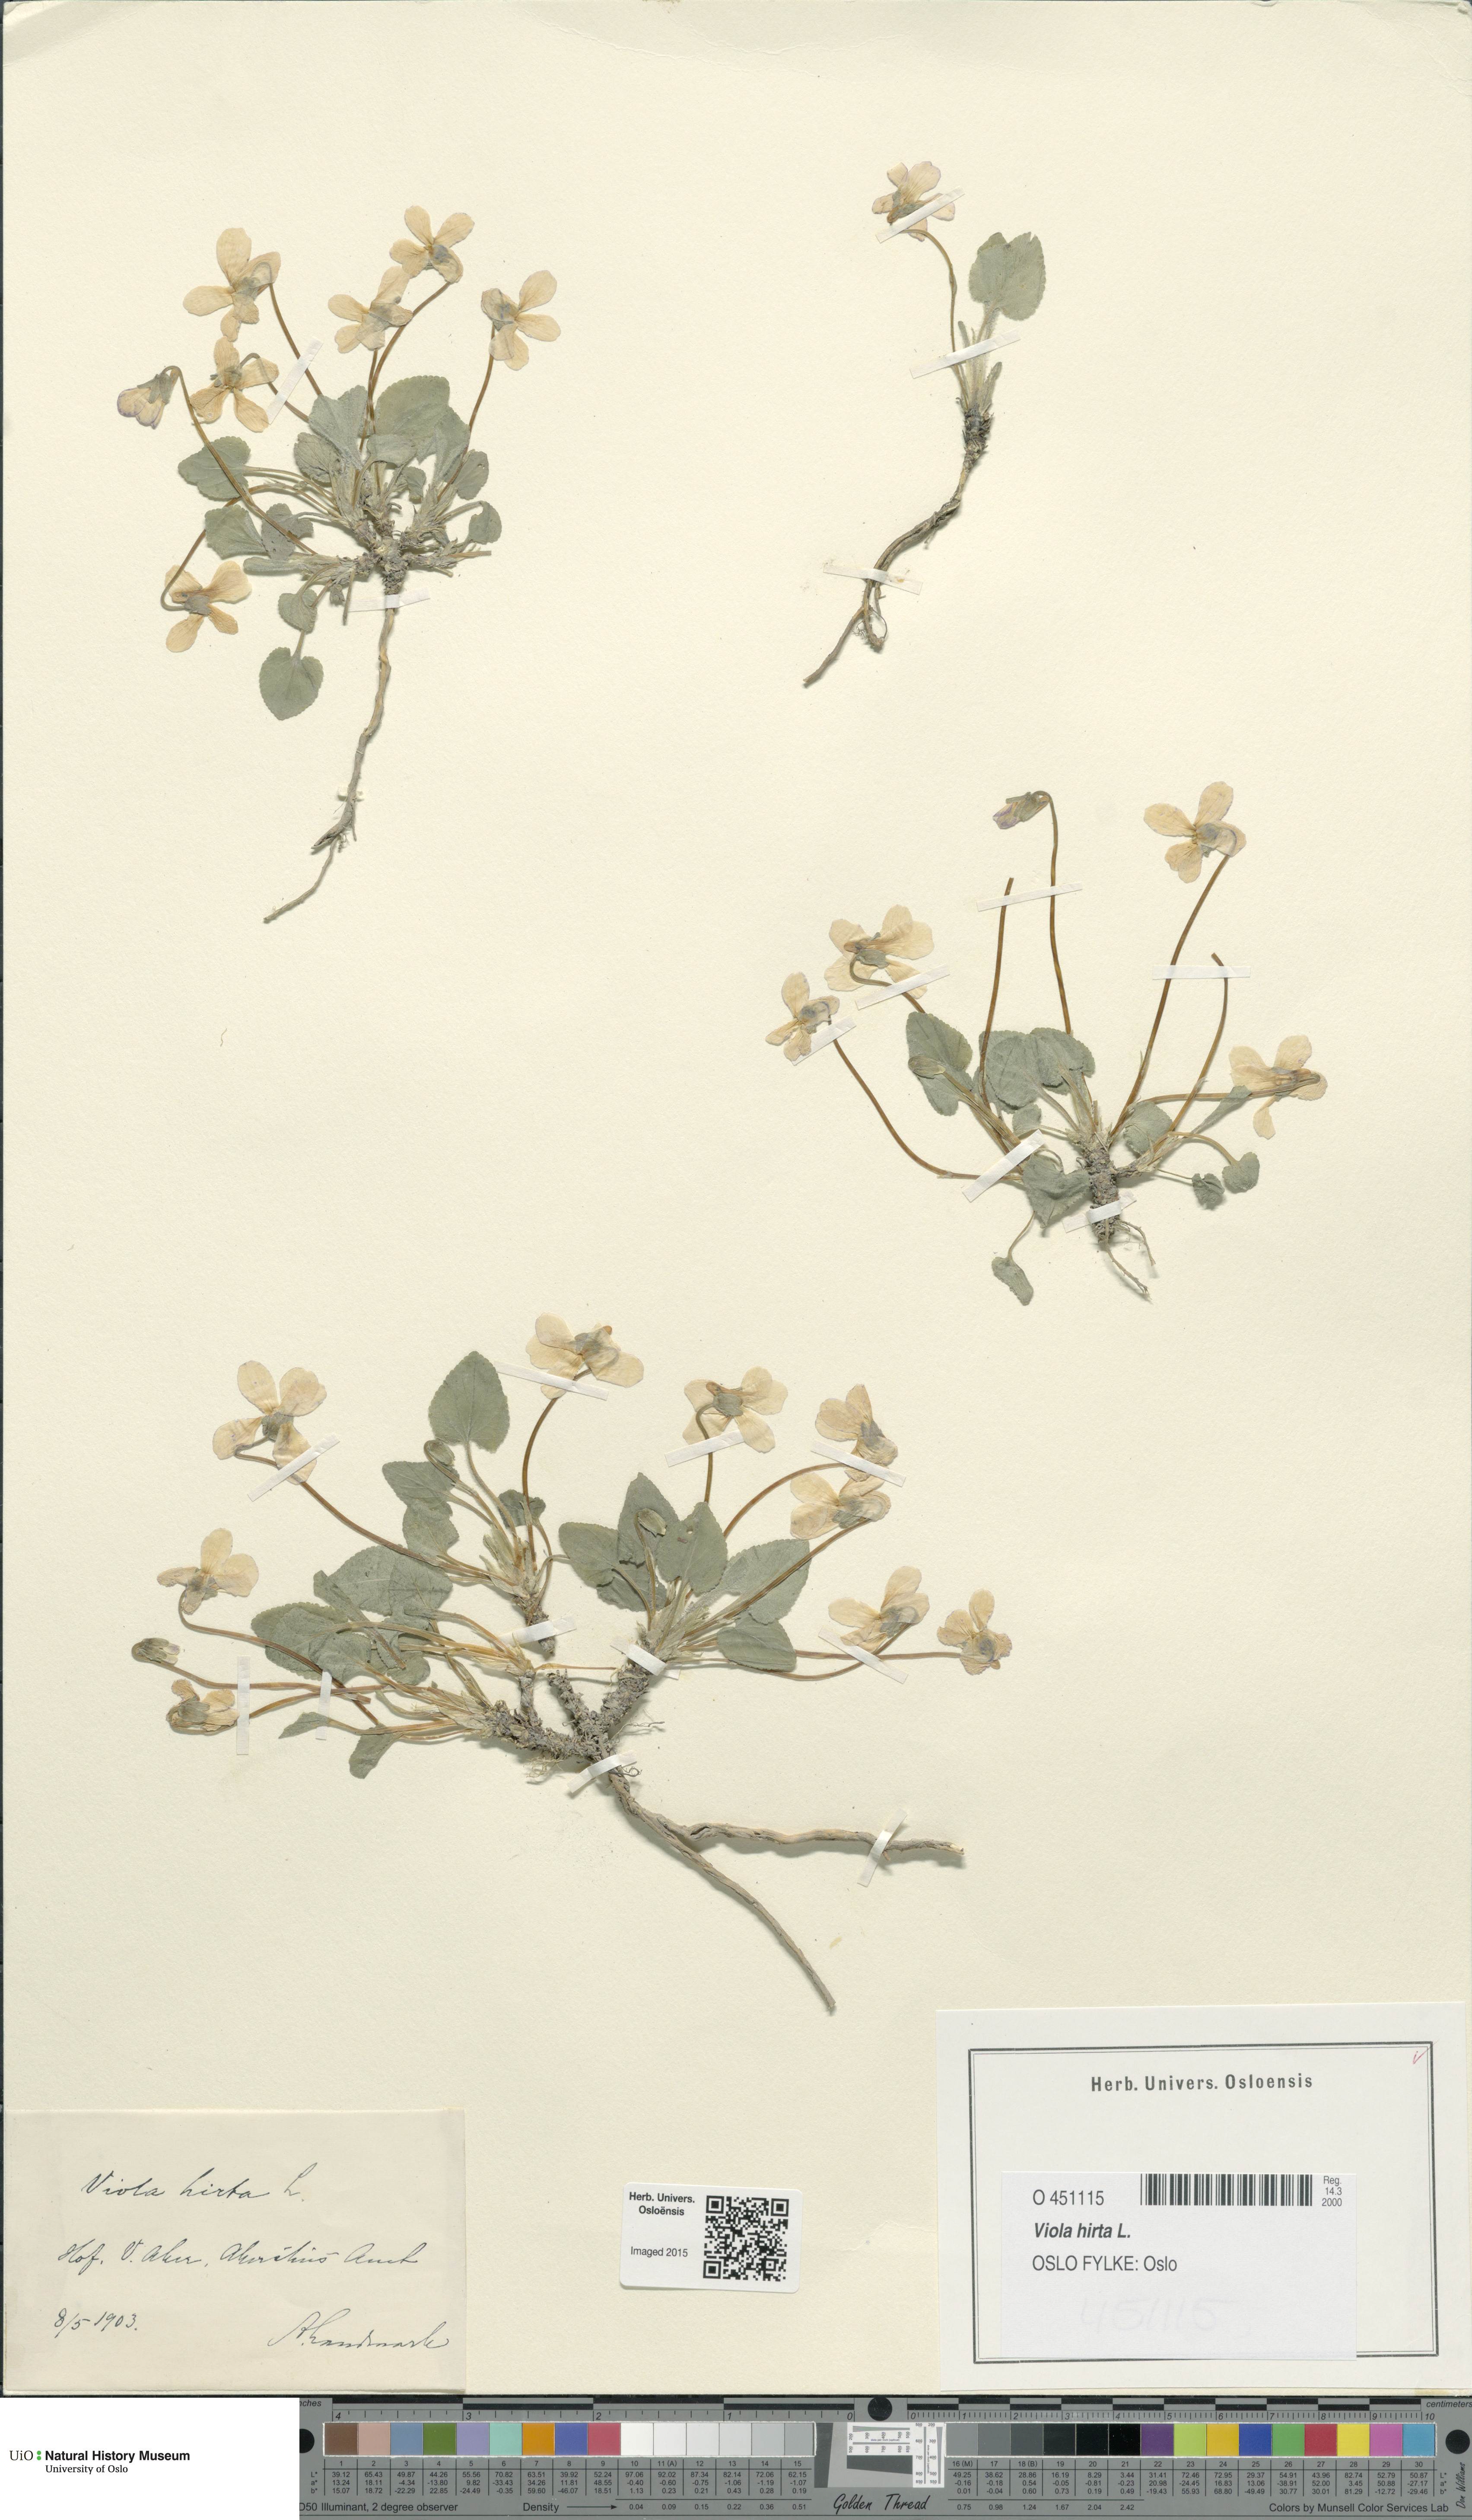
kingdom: Plantae
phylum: Tracheophyta
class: Magnoliopsida
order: Malpighiales
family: Violaceae
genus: Viola
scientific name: Viola hirta
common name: Hairy violet
